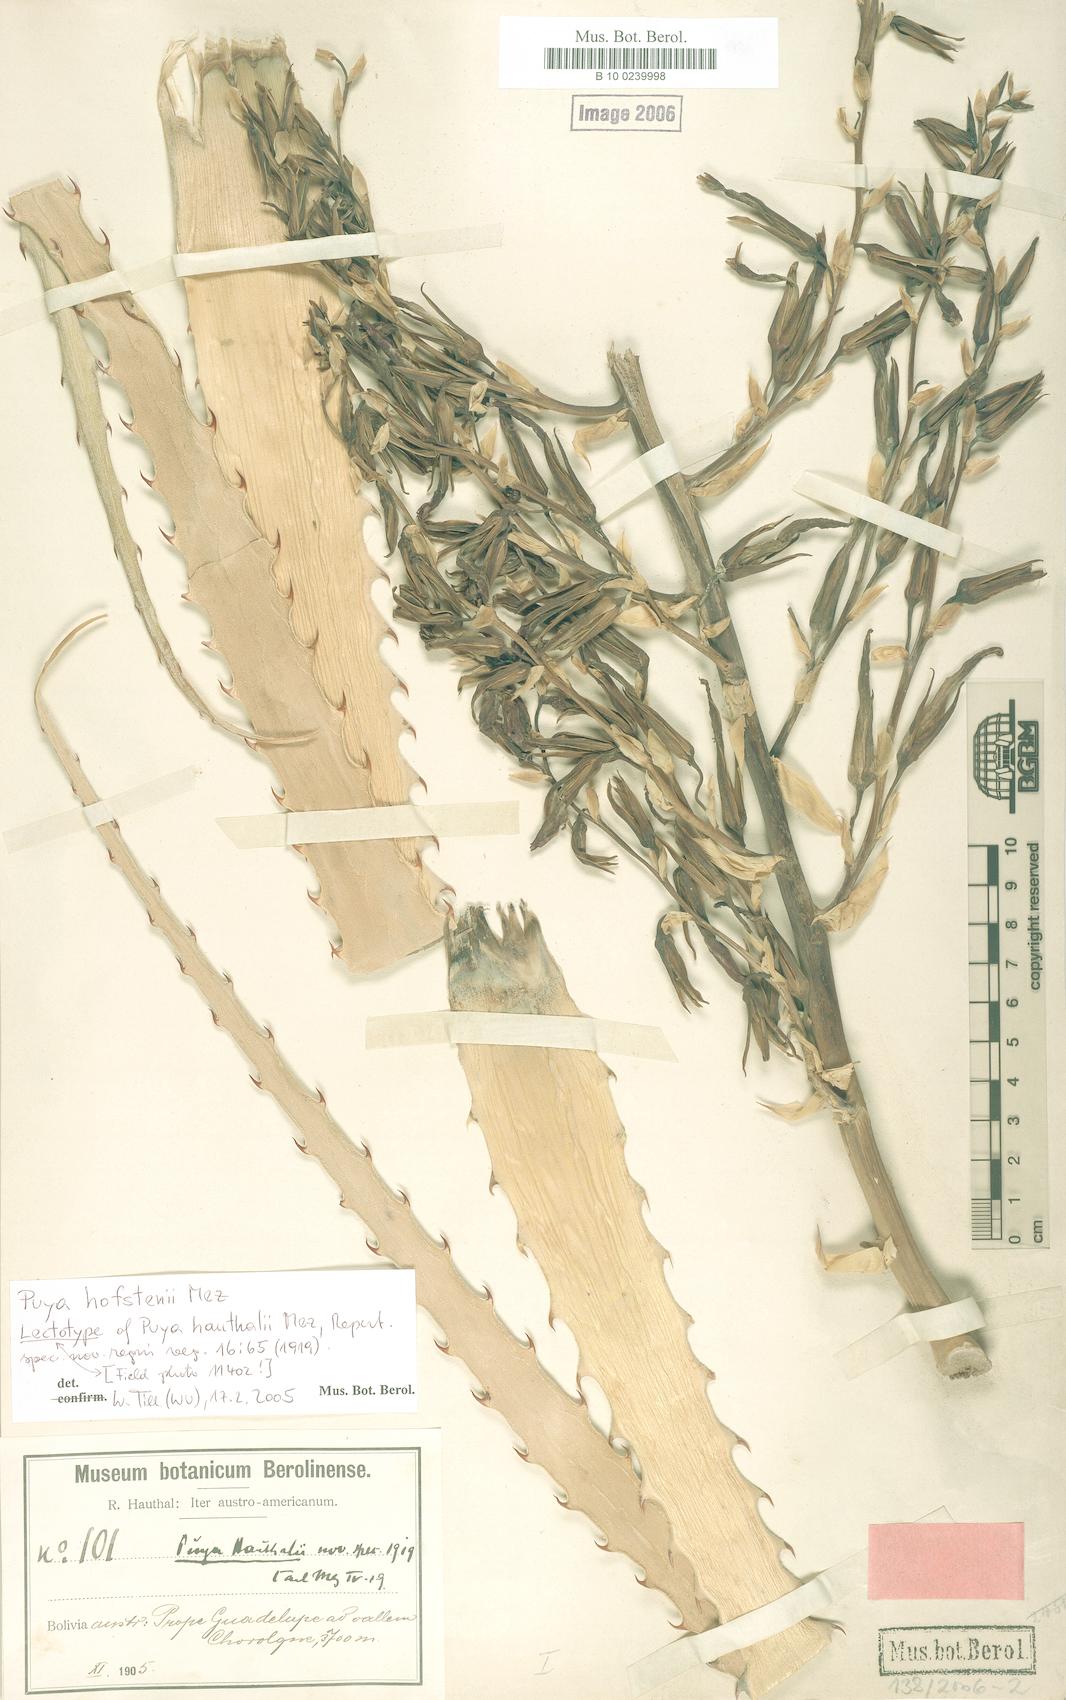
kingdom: Plantae
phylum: Tracheophyta
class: Liliopsida
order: Poales
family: Bromeliaceae
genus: Puya
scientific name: Puya hofstenii
